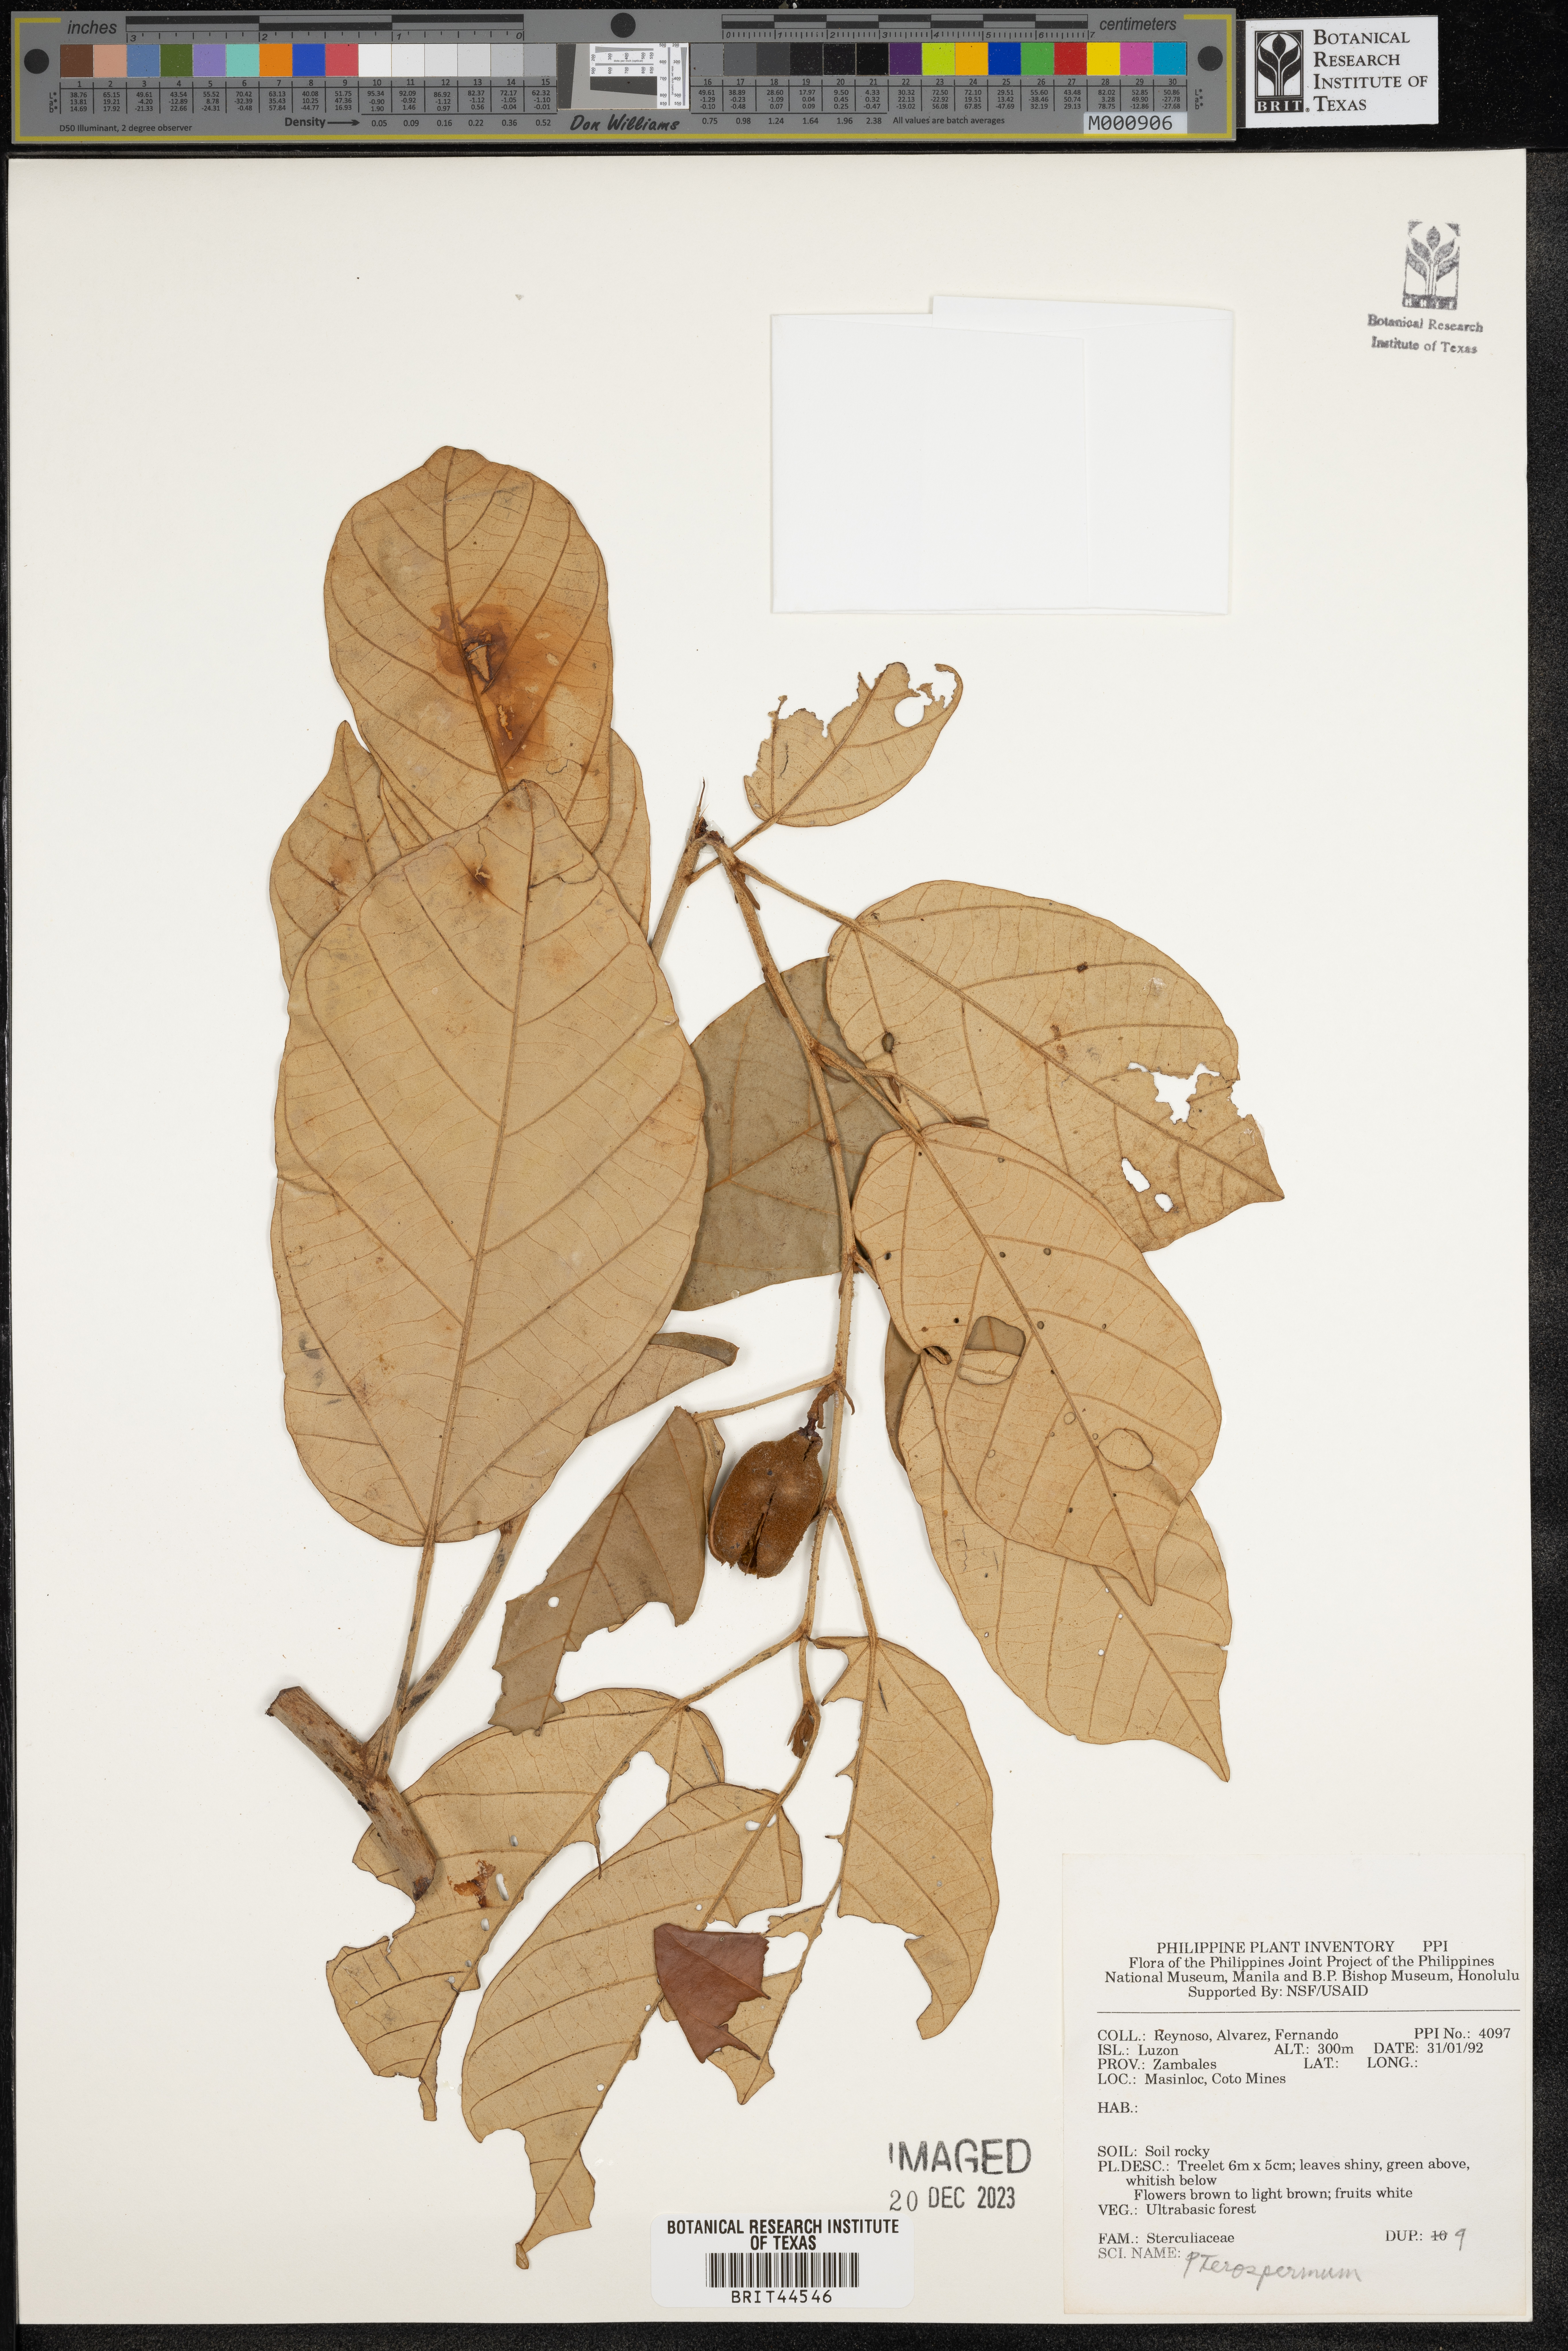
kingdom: Plantae
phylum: Tracheophyta
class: Magnoliopsida
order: Malvales
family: Malvaceae
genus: Pterospermum
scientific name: Pterospermum
